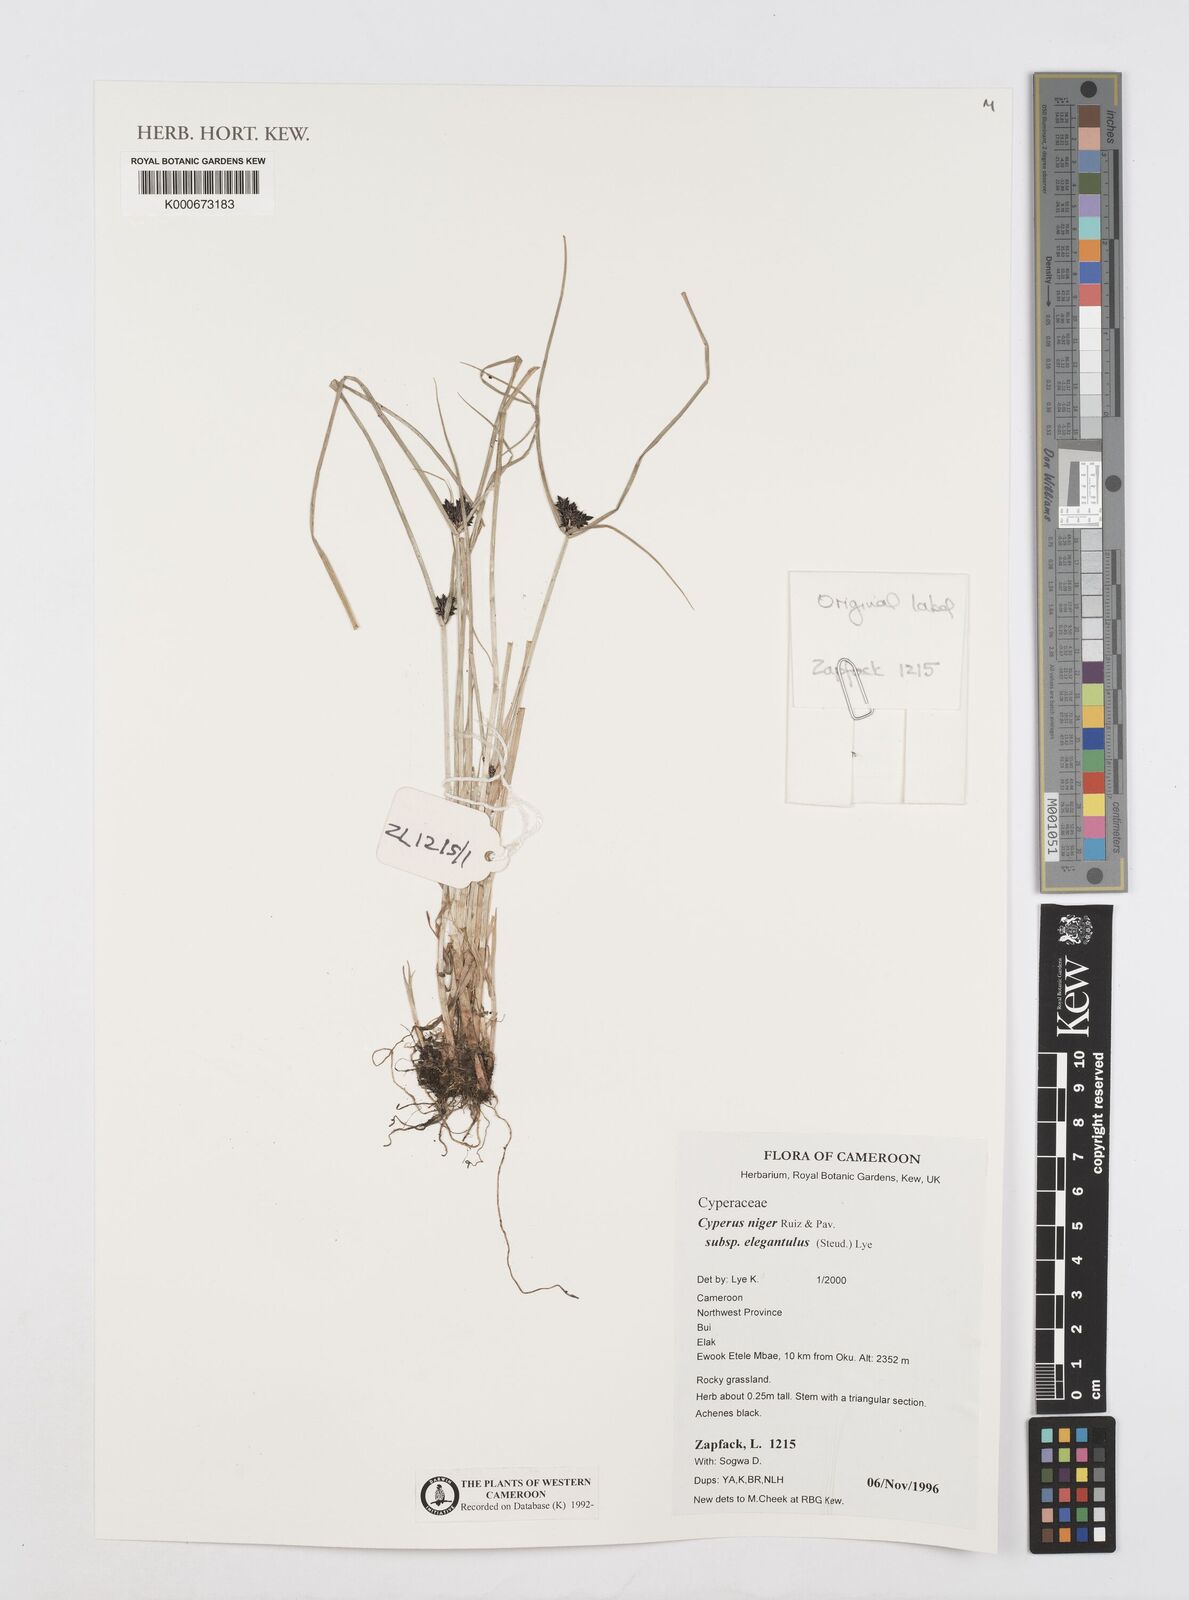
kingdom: Plantae
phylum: Tracheophyta
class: Liliopsida
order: Poales
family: Cyperaceae
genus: Cyperus
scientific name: Cyperus elegantulus
